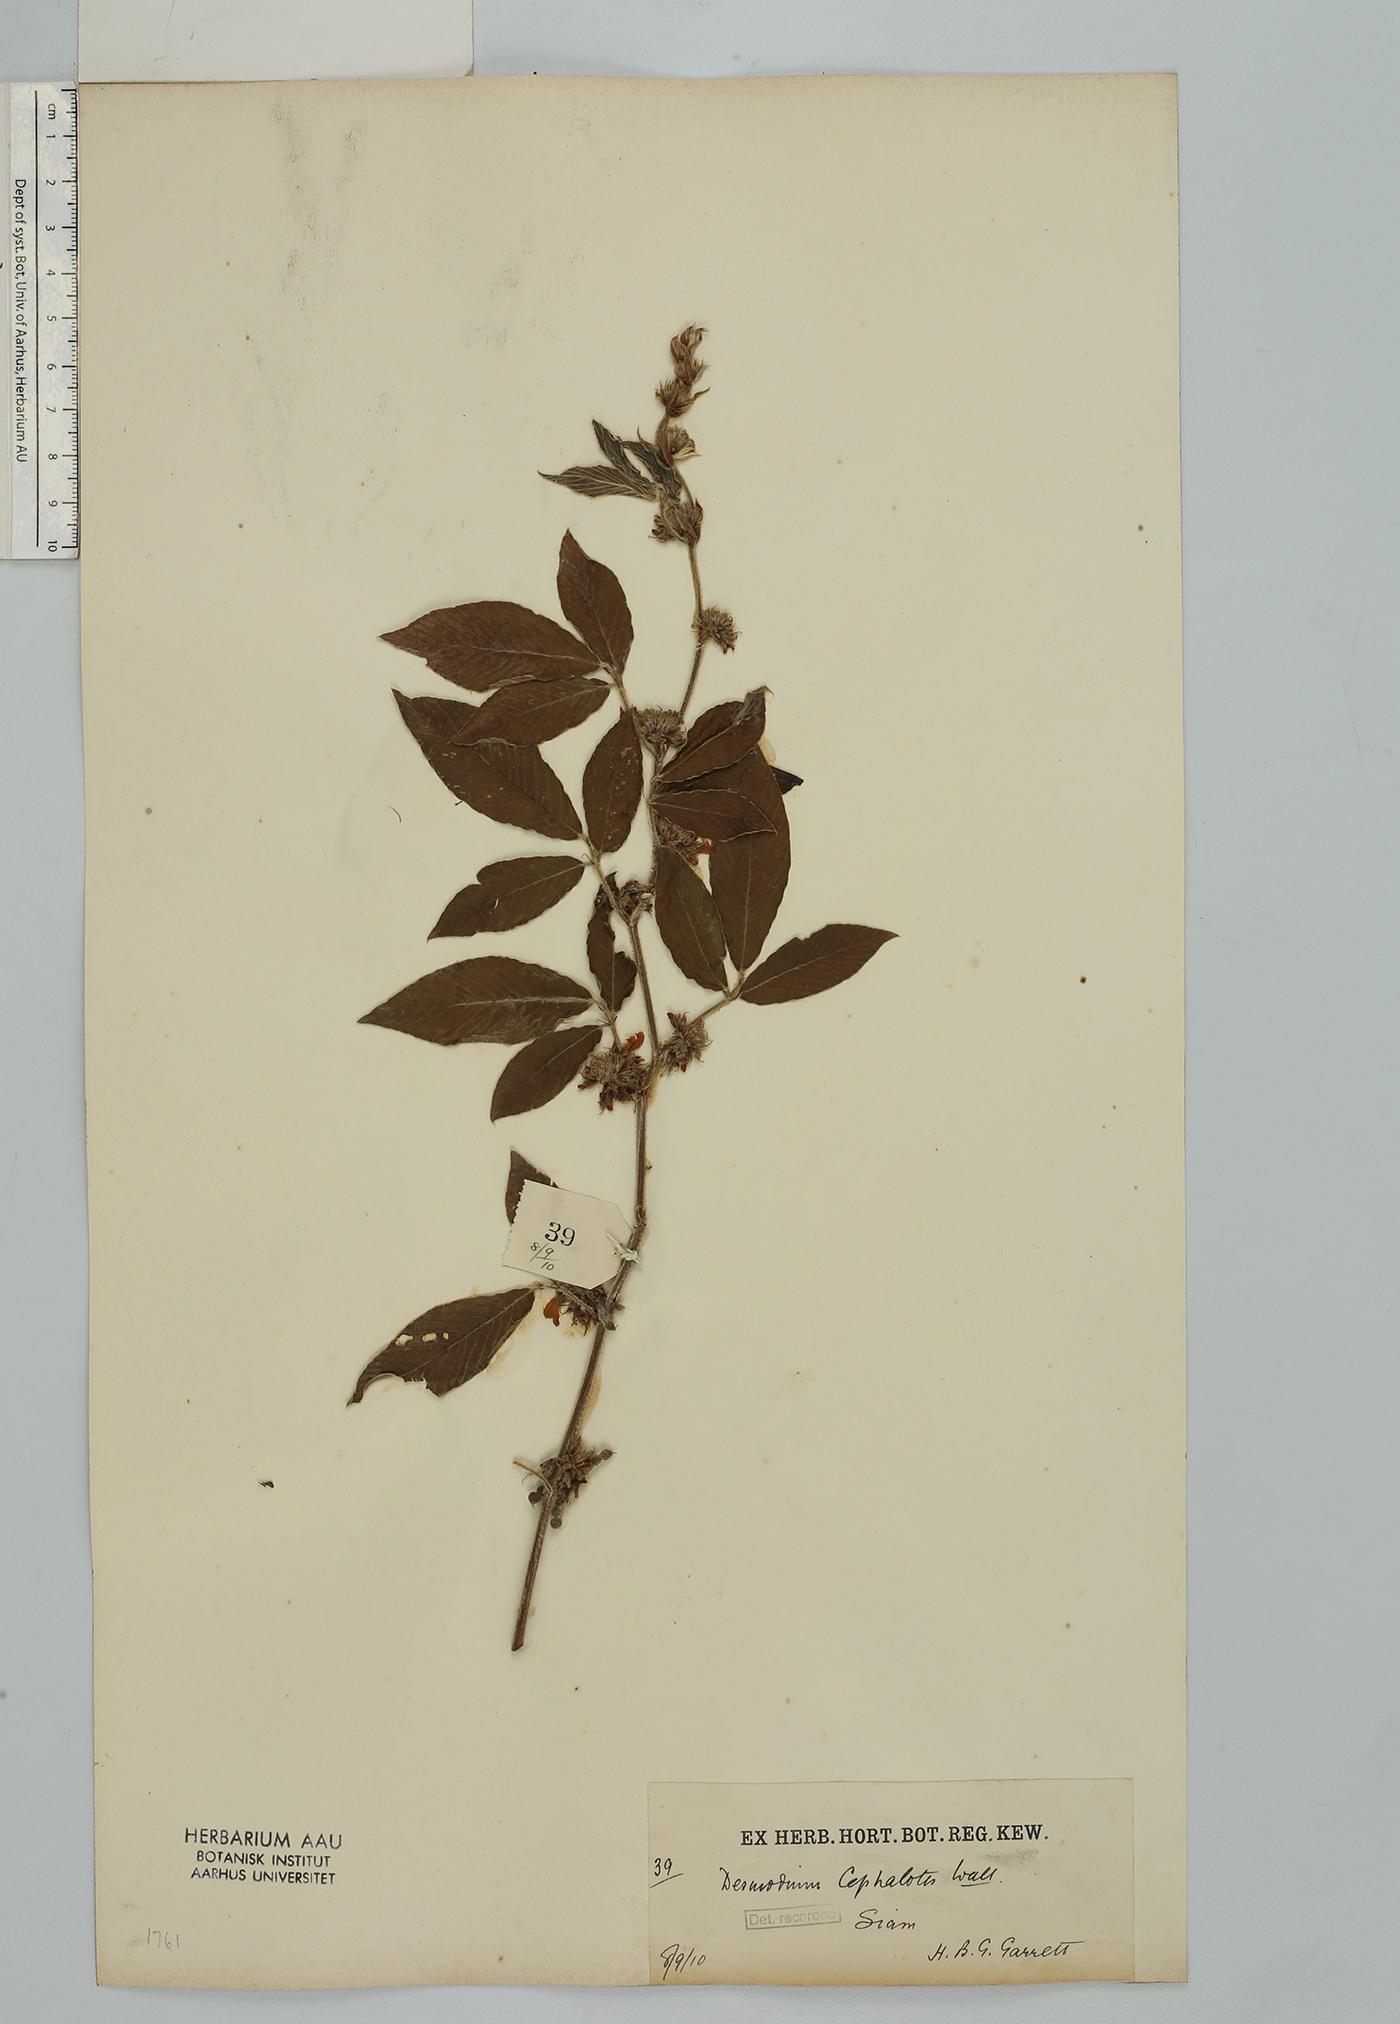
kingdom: Plantae
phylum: Tracheophyta
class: Magnoliopsida
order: Fabales
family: Fabaceae
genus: Dendrolobium
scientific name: Dendrolobium triangulare
